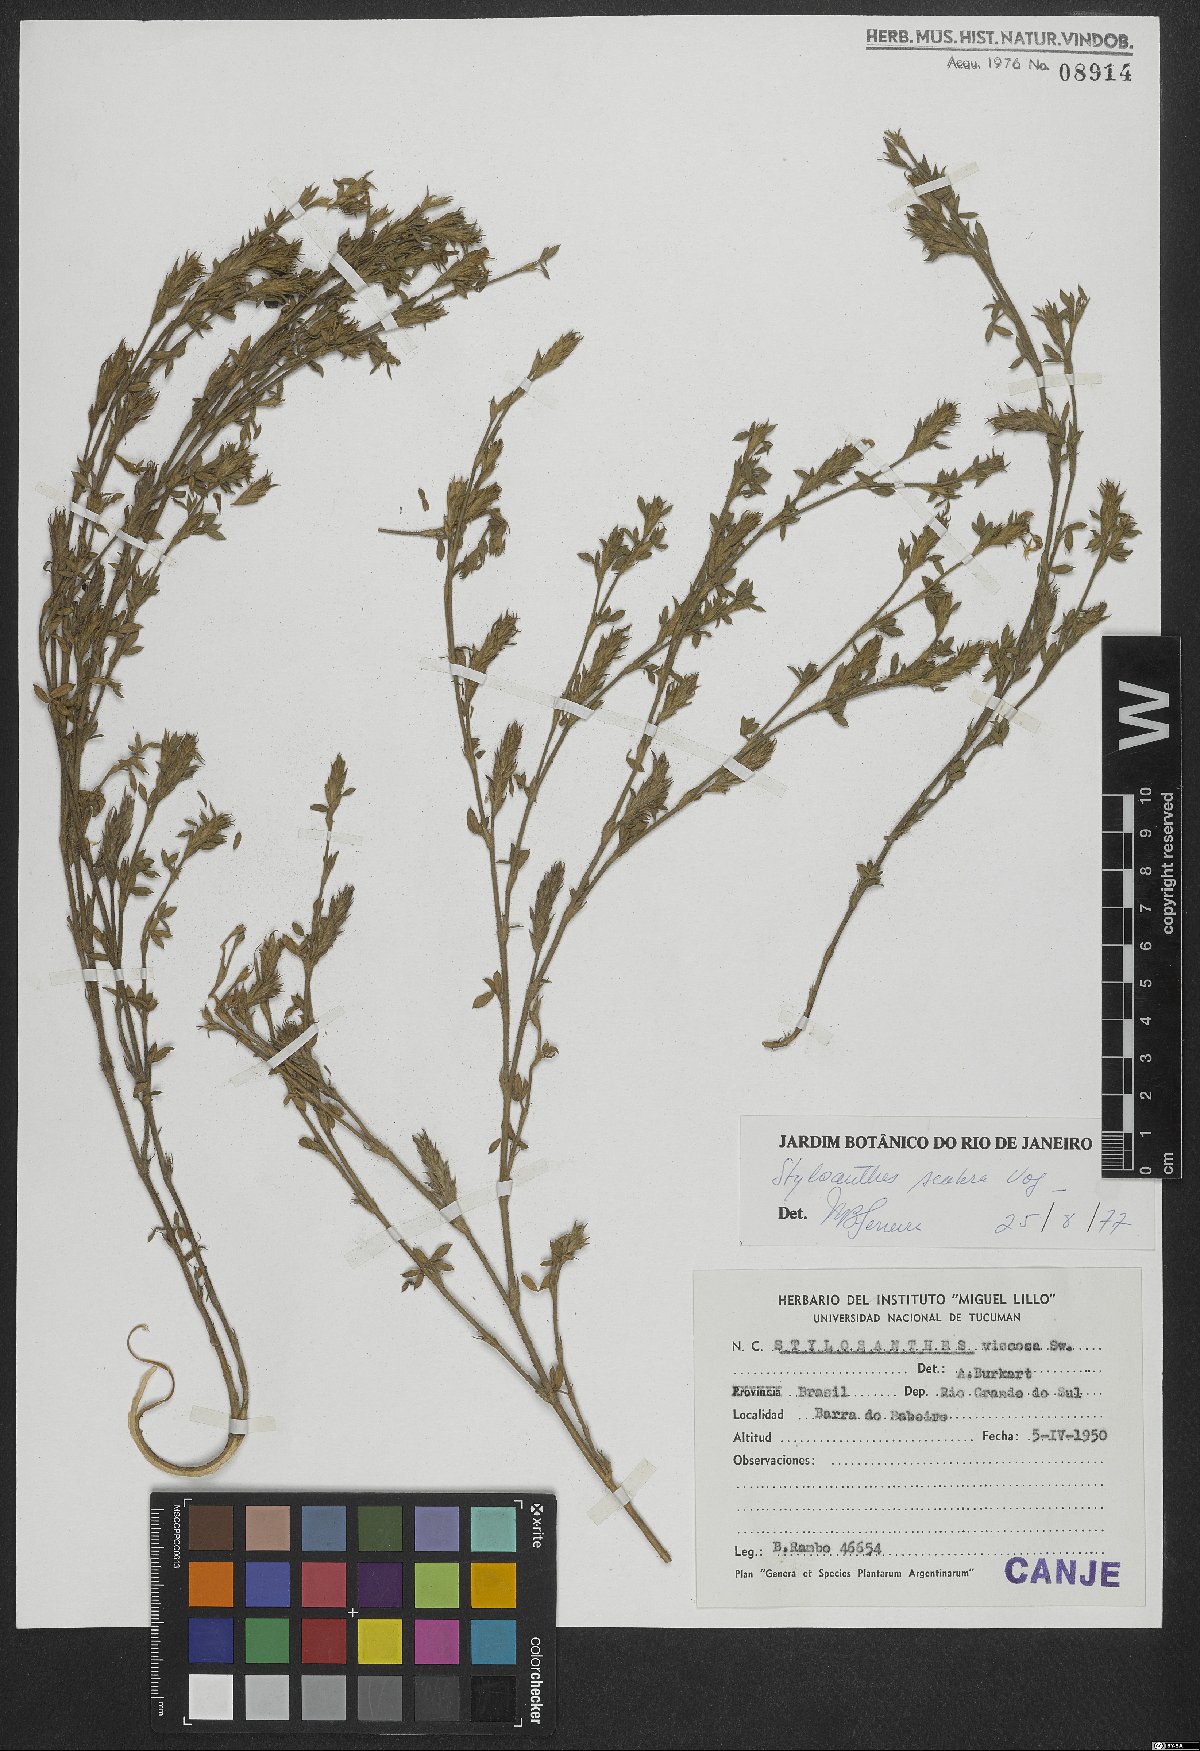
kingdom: Plantae
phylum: Tracheophyta
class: Magnoliopsida
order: Fabales
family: Fabaceae
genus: Stylosanthes
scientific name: Stylosanthes scabra
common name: Pencilflower
